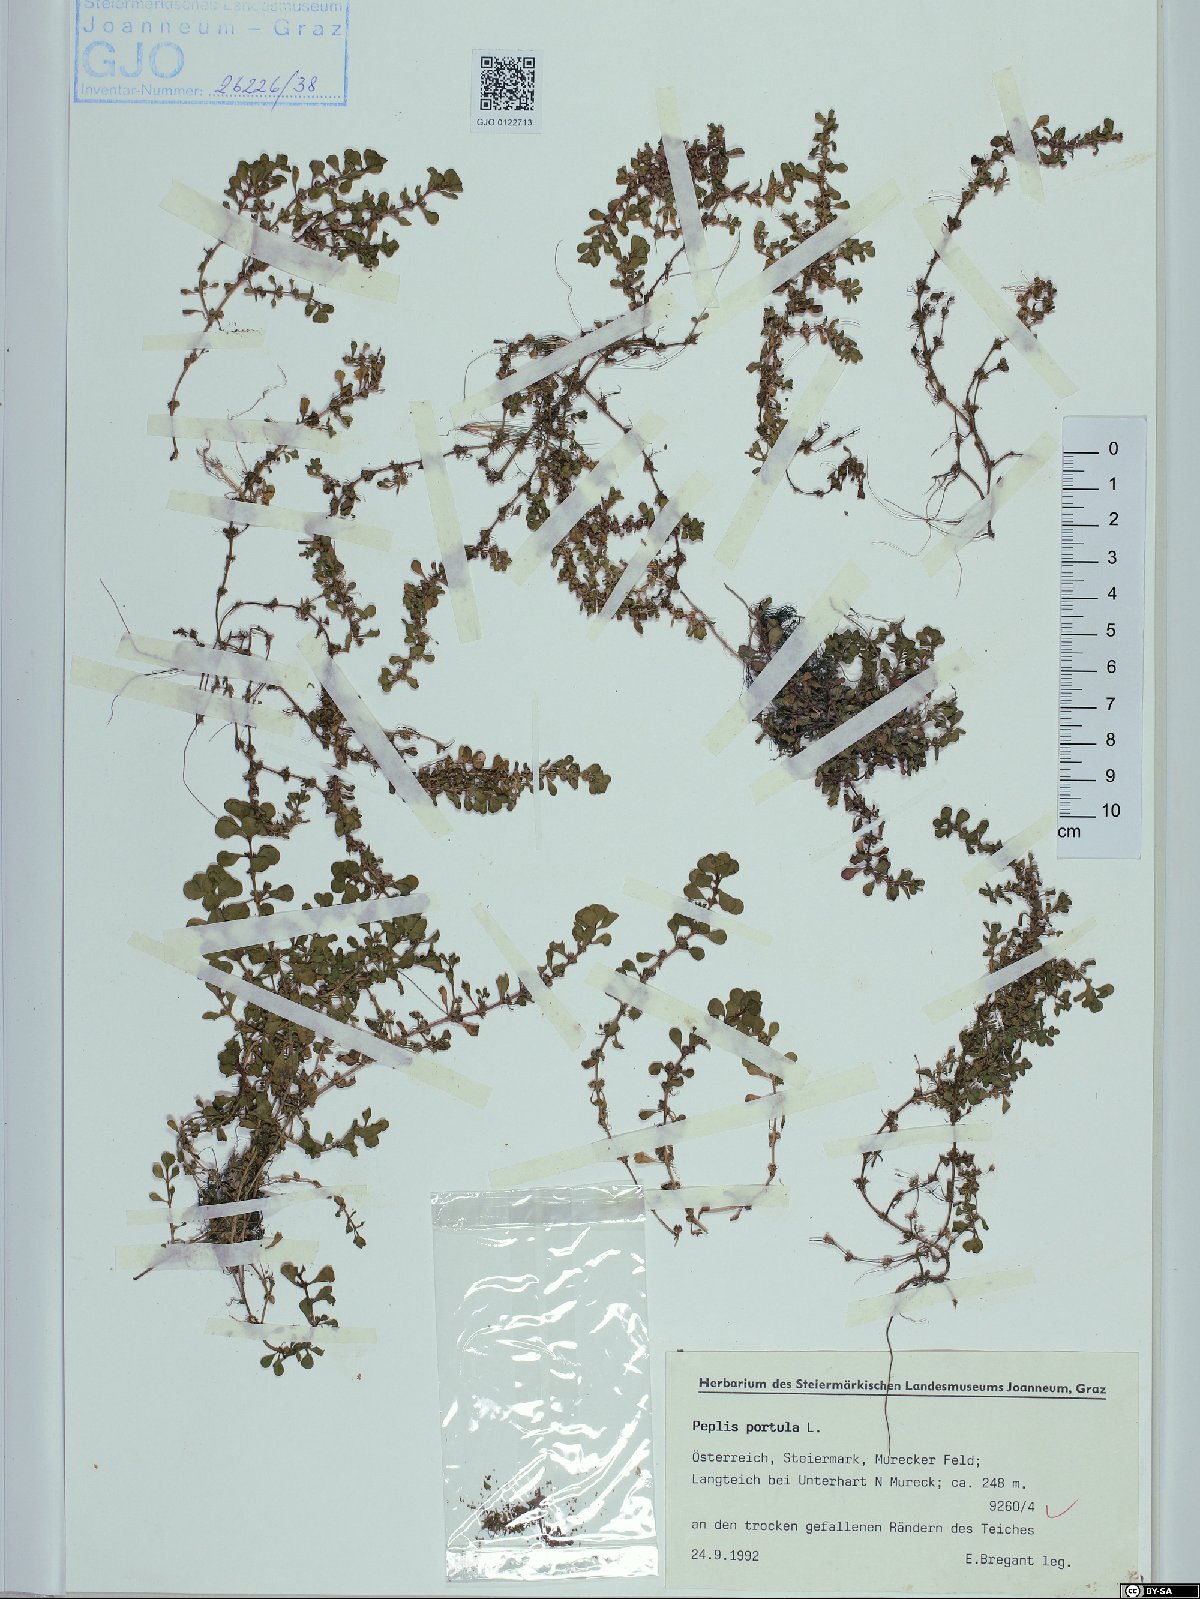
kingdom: Plantae
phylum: Tracheophyta
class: Magnoliopsida
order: Myrtales
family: Lythraceae
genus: Lythrum
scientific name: Lythrum portula
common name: Water purslane
